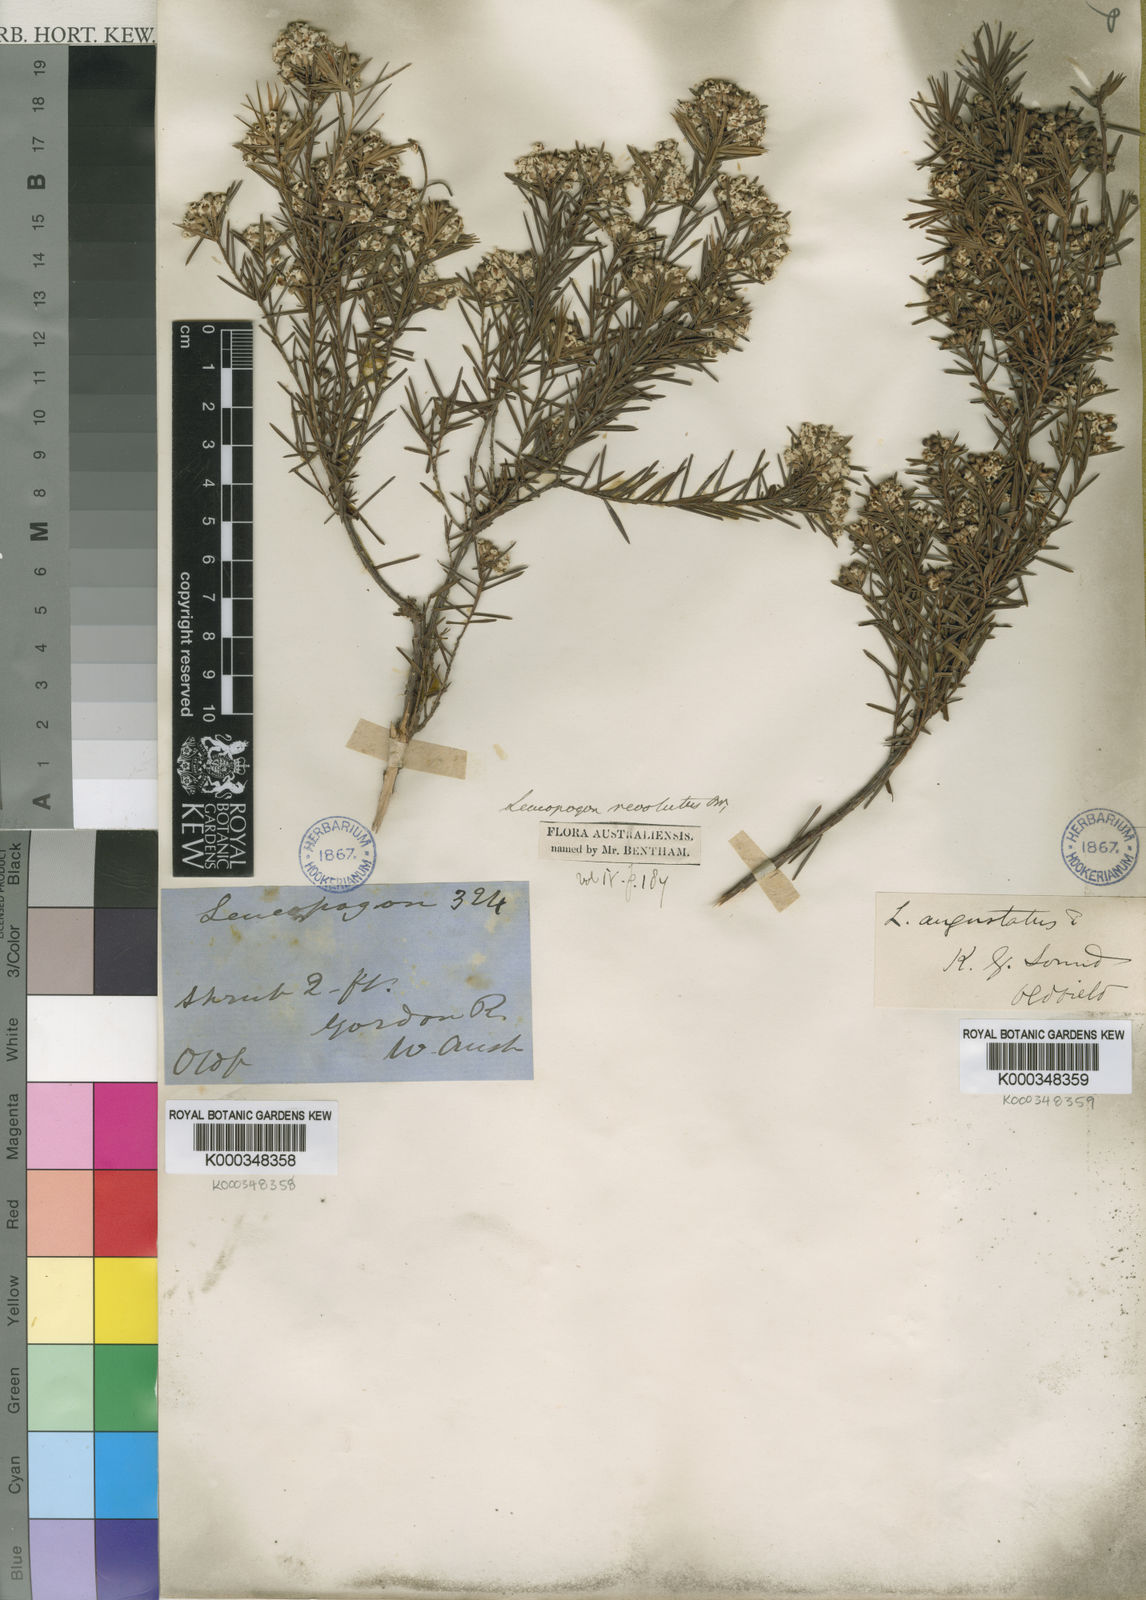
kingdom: Plantae
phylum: Tracheophyta
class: Magnoliopsida
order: Ericales
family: Ericaceae
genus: Leucopogon
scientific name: Leucopogon obovatus
